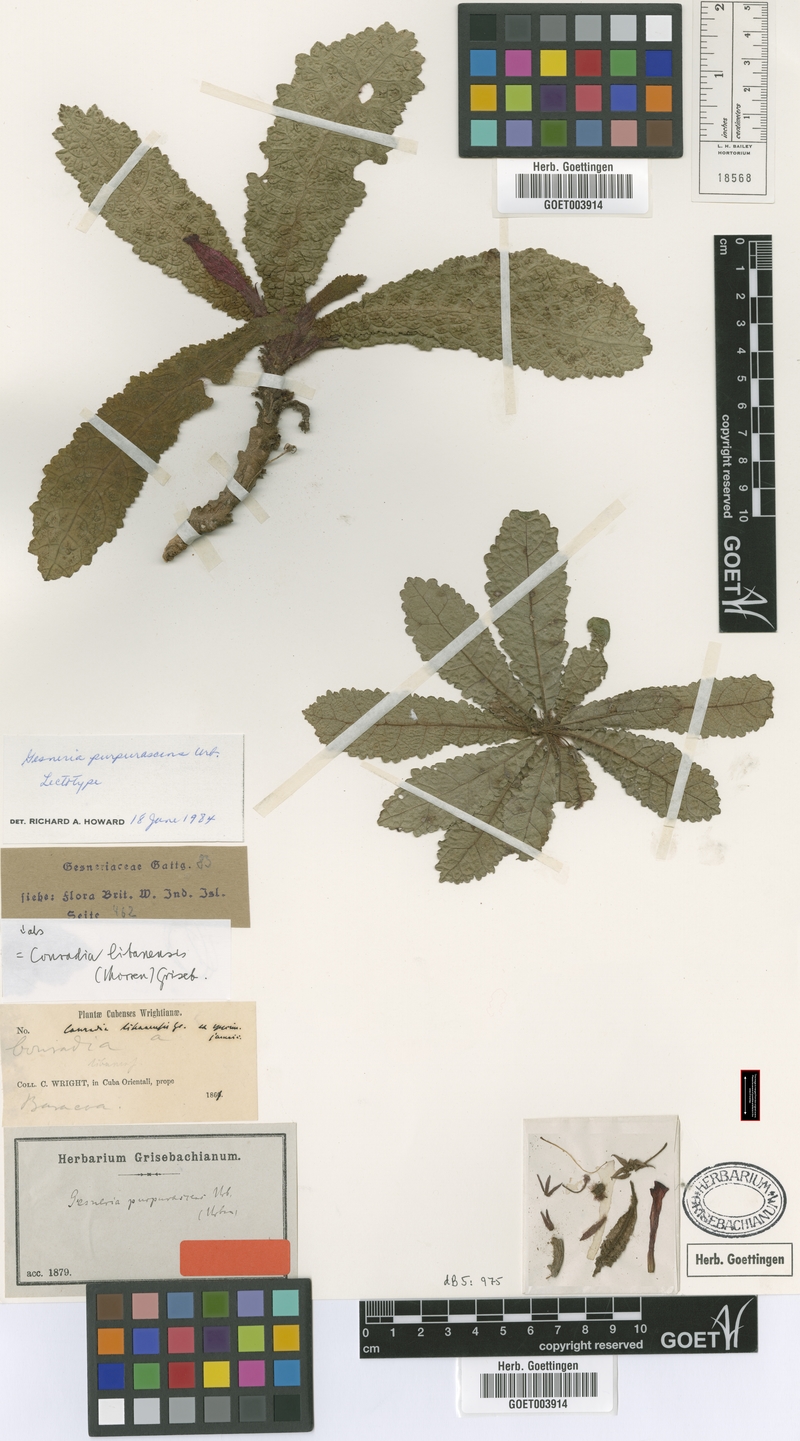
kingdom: Plantae
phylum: Tracheophyta
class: Magnoliopsida
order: Lamiales
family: Gesneriaceae
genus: Gesneria
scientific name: Gesneria purpurascens
